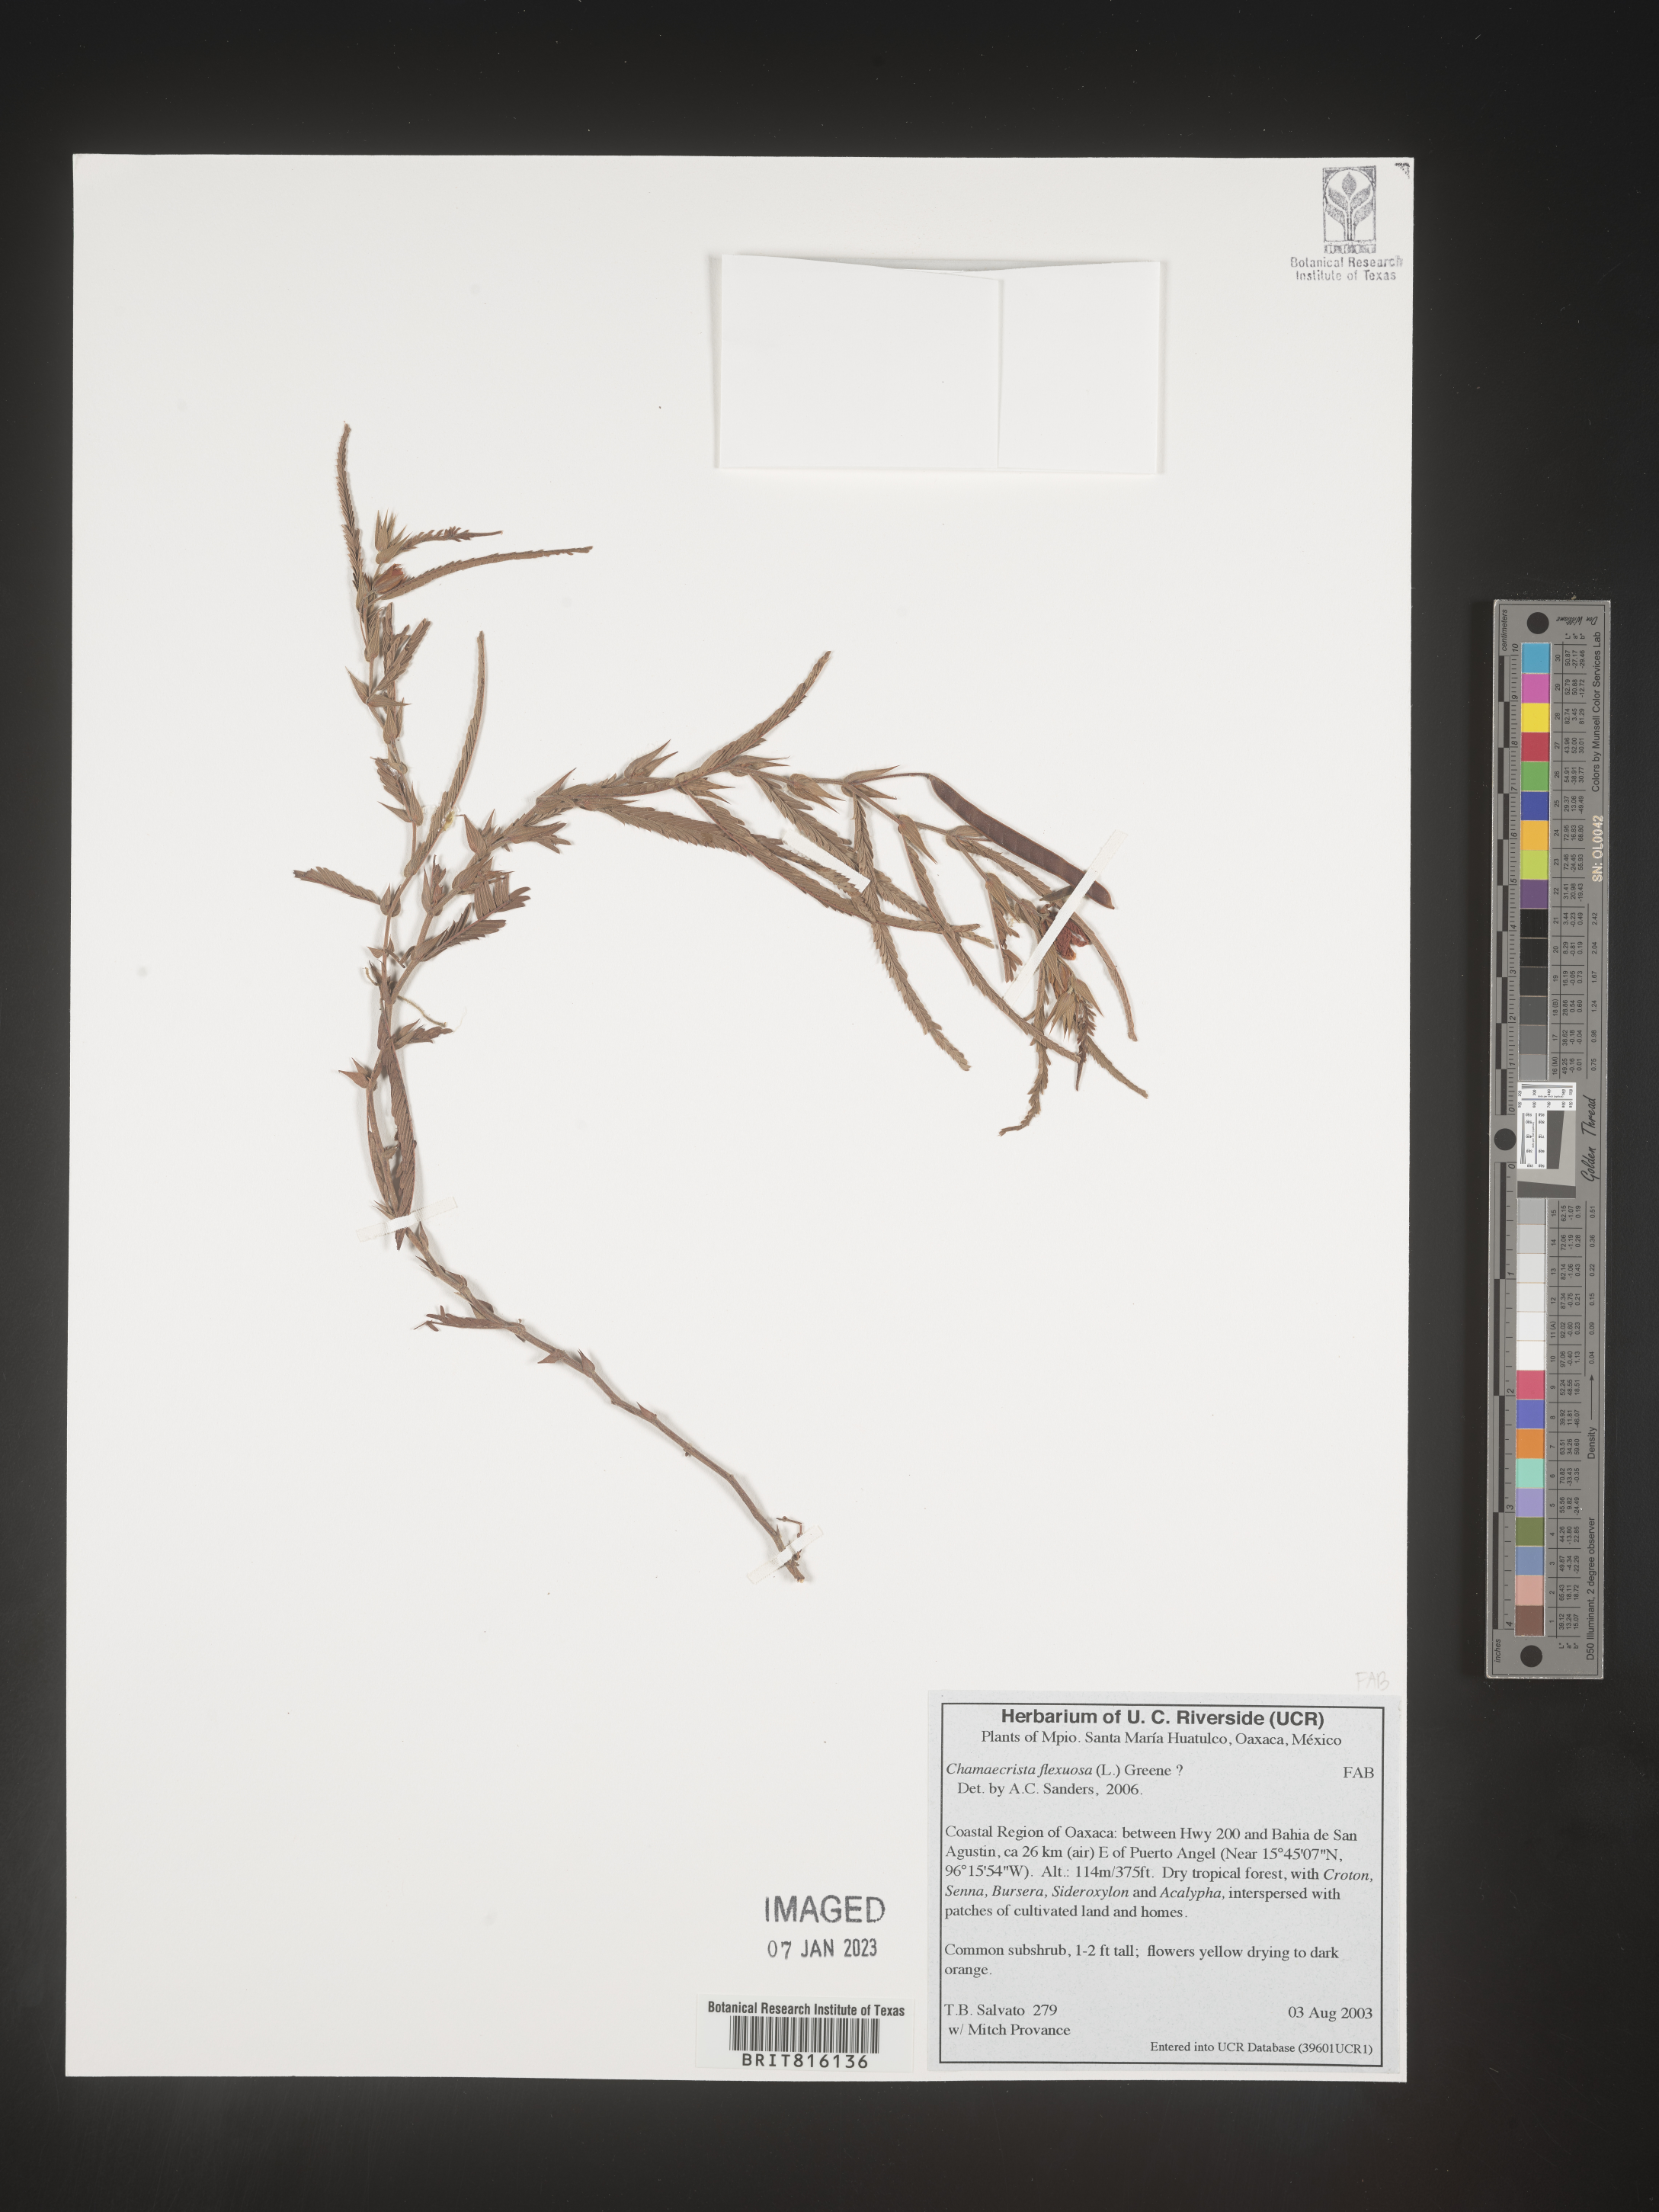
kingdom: Plantae
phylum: Tracheophyta
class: Magnoliopsida
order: Fabales
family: Fabaceae
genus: Chamaecrista
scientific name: Chamaecrista
